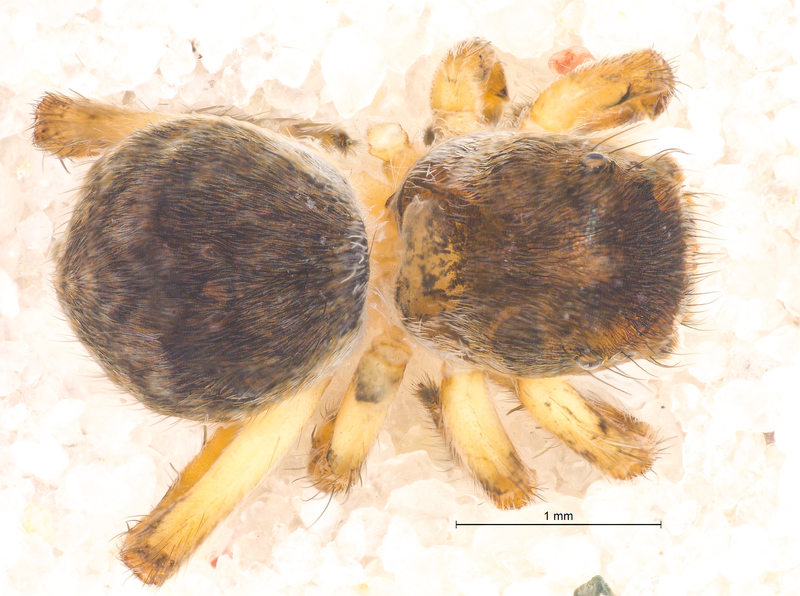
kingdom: Animalia
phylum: Arthropoda
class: Arachnida
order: Araneae
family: Salticidae
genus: Attulus
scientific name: Attulus saltator
